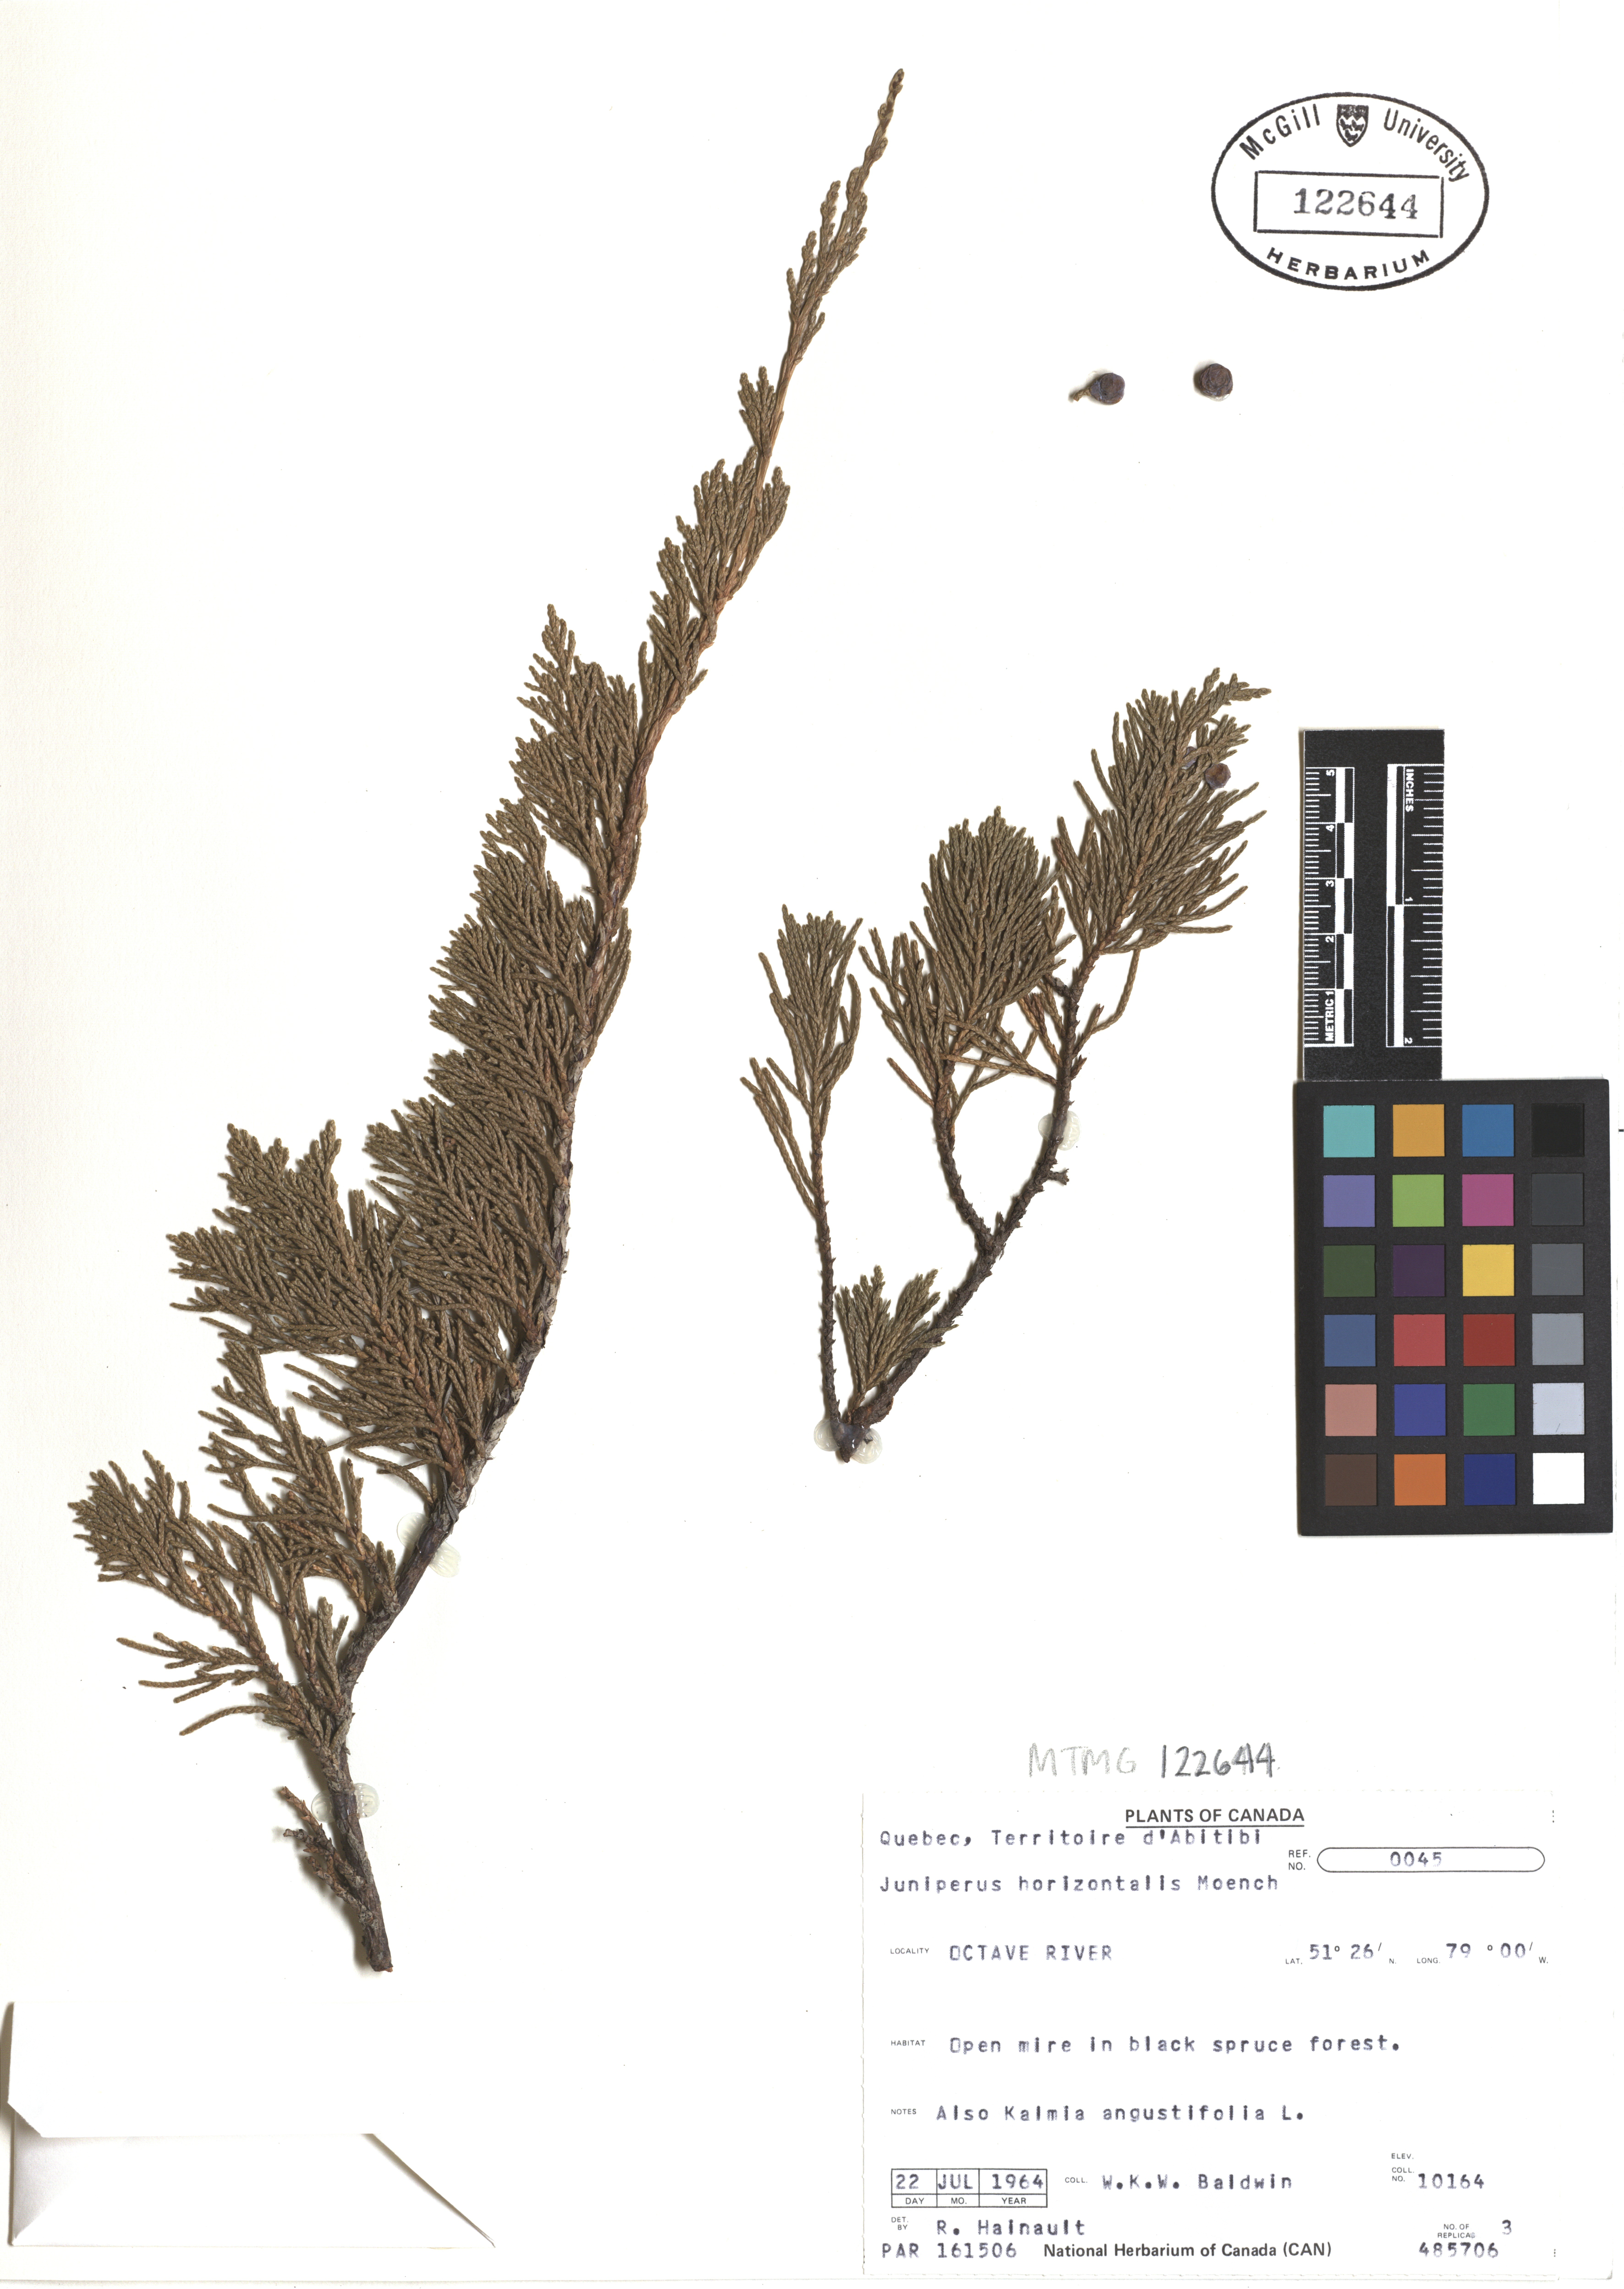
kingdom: Plantae
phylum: Tracheophyta
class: Pinopsida
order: Pinales
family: Cupressaceae
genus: Juniperus
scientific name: Juniperus horizontalis
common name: Creeping juniper
